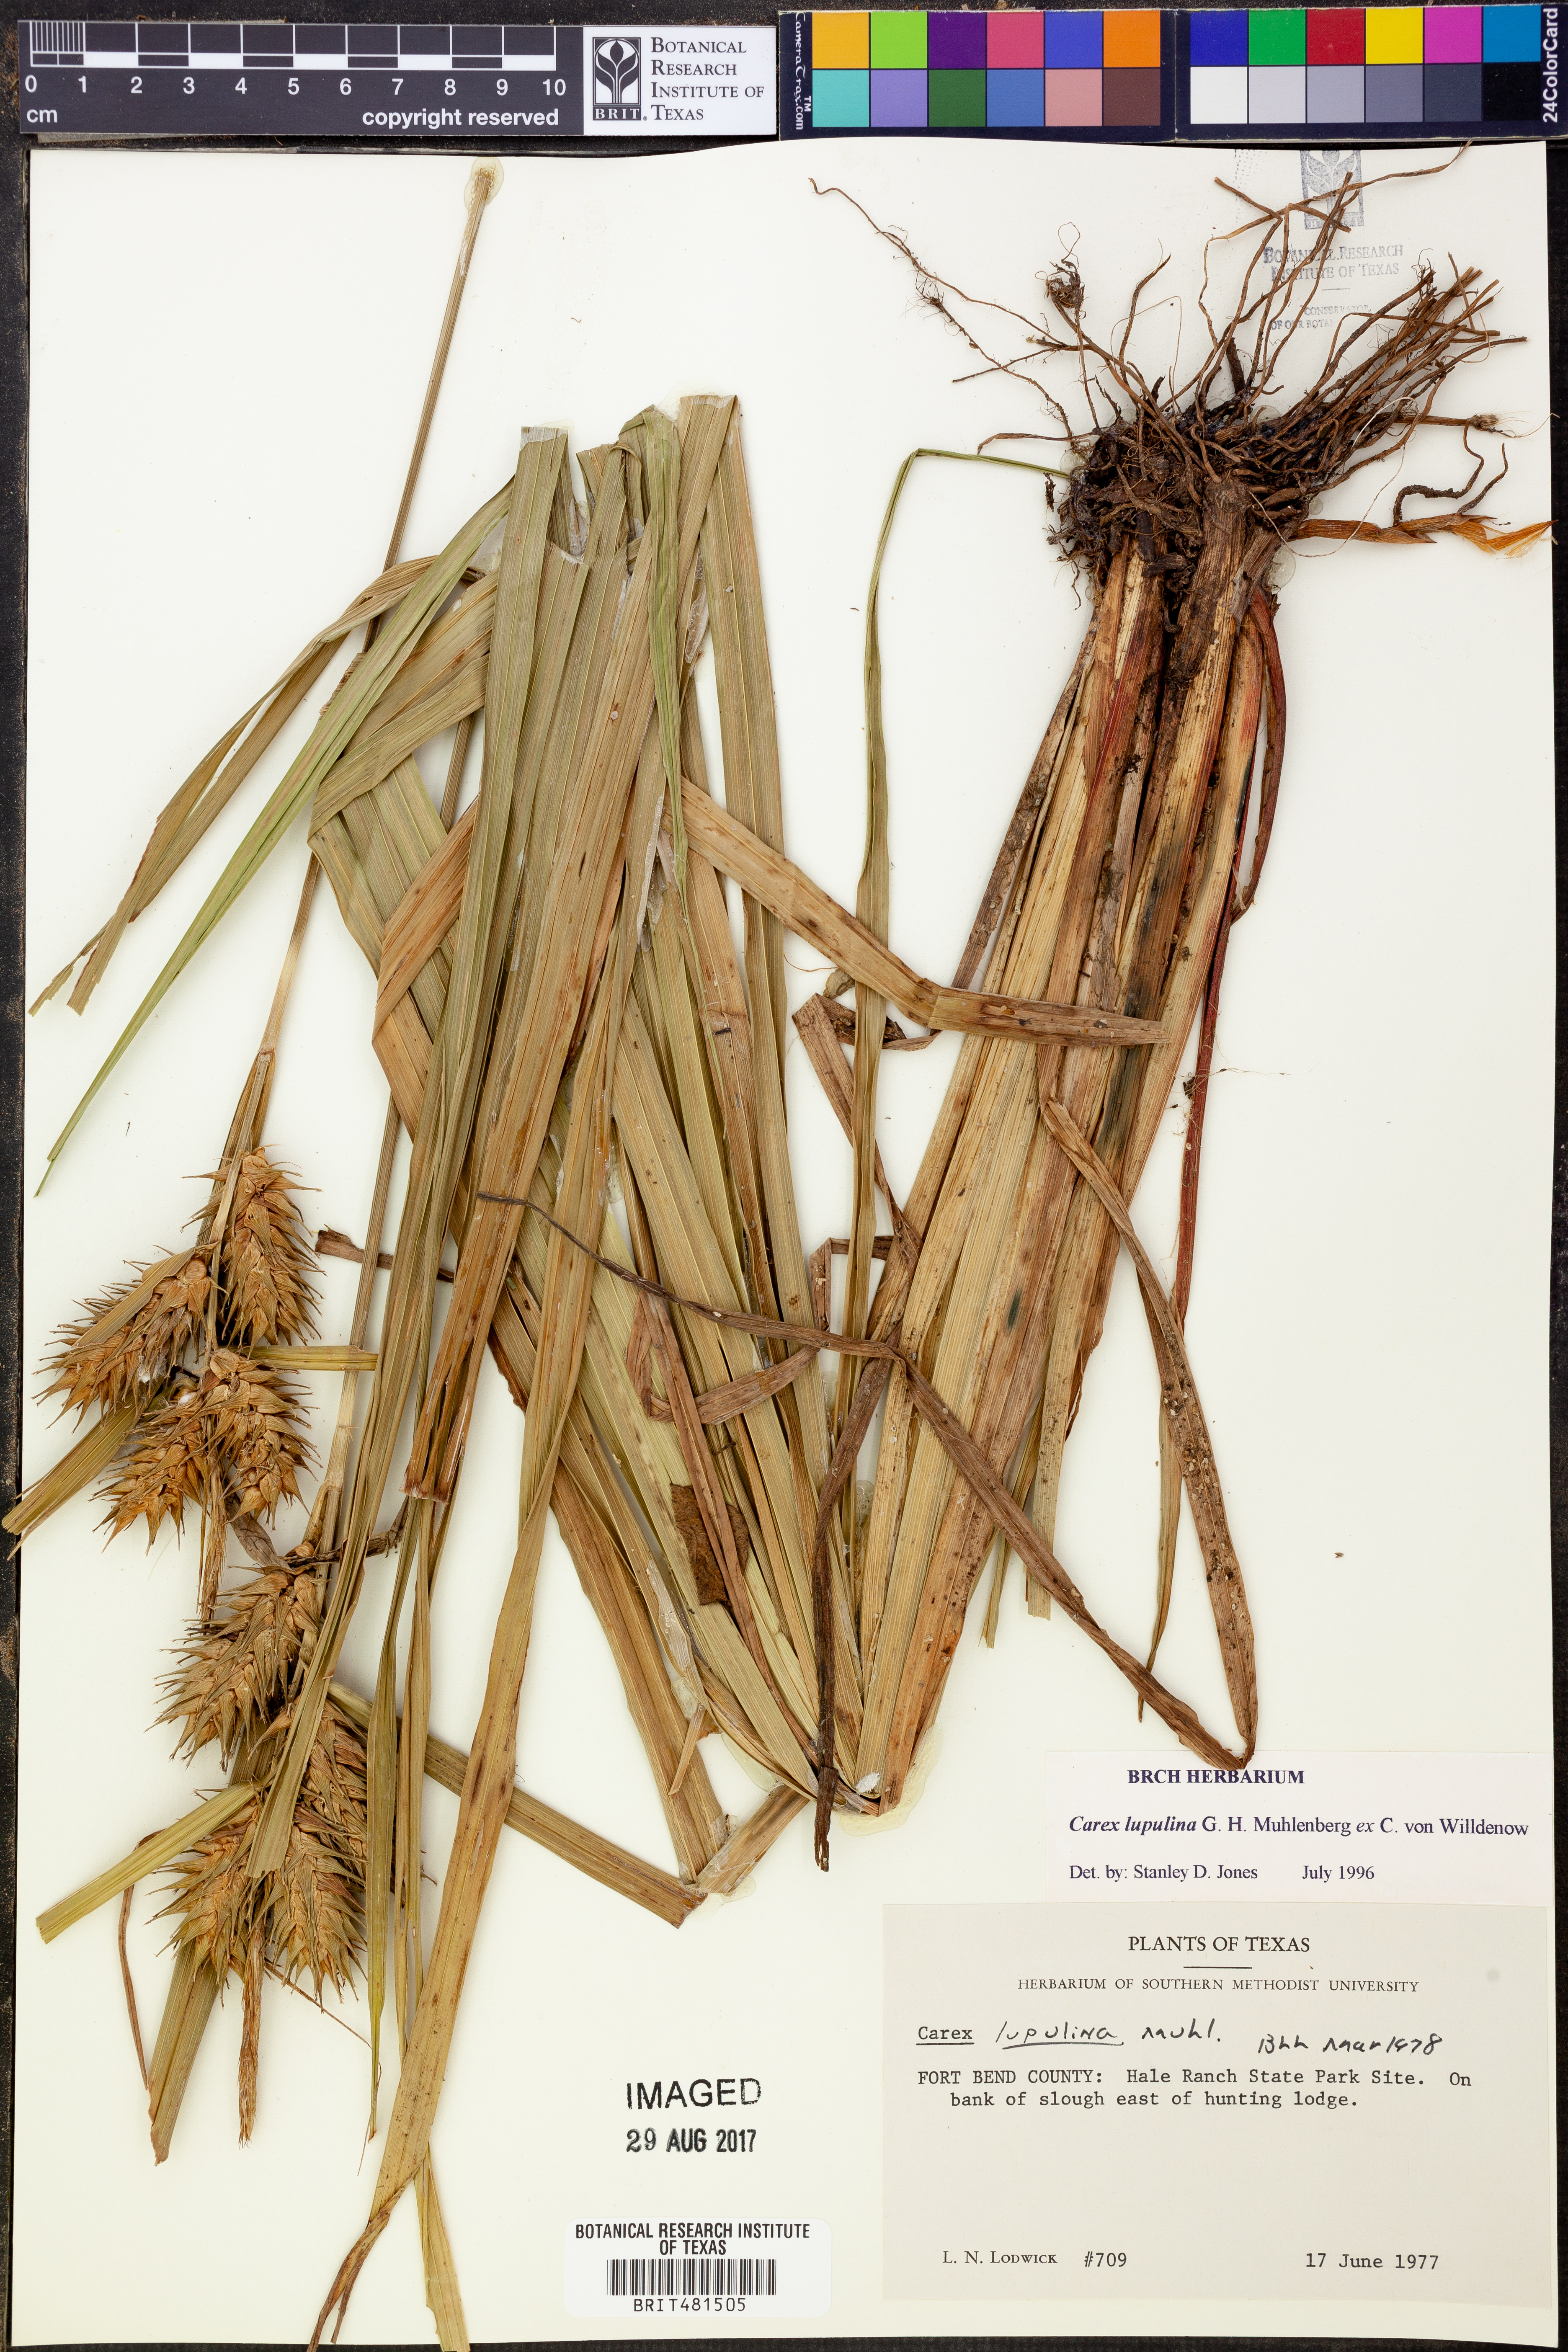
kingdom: Plantae
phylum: Tracheophyta
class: Liliopsida
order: Poales
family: Cyperaceae
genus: Carex
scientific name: Carex lupulina
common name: Hop sedge
